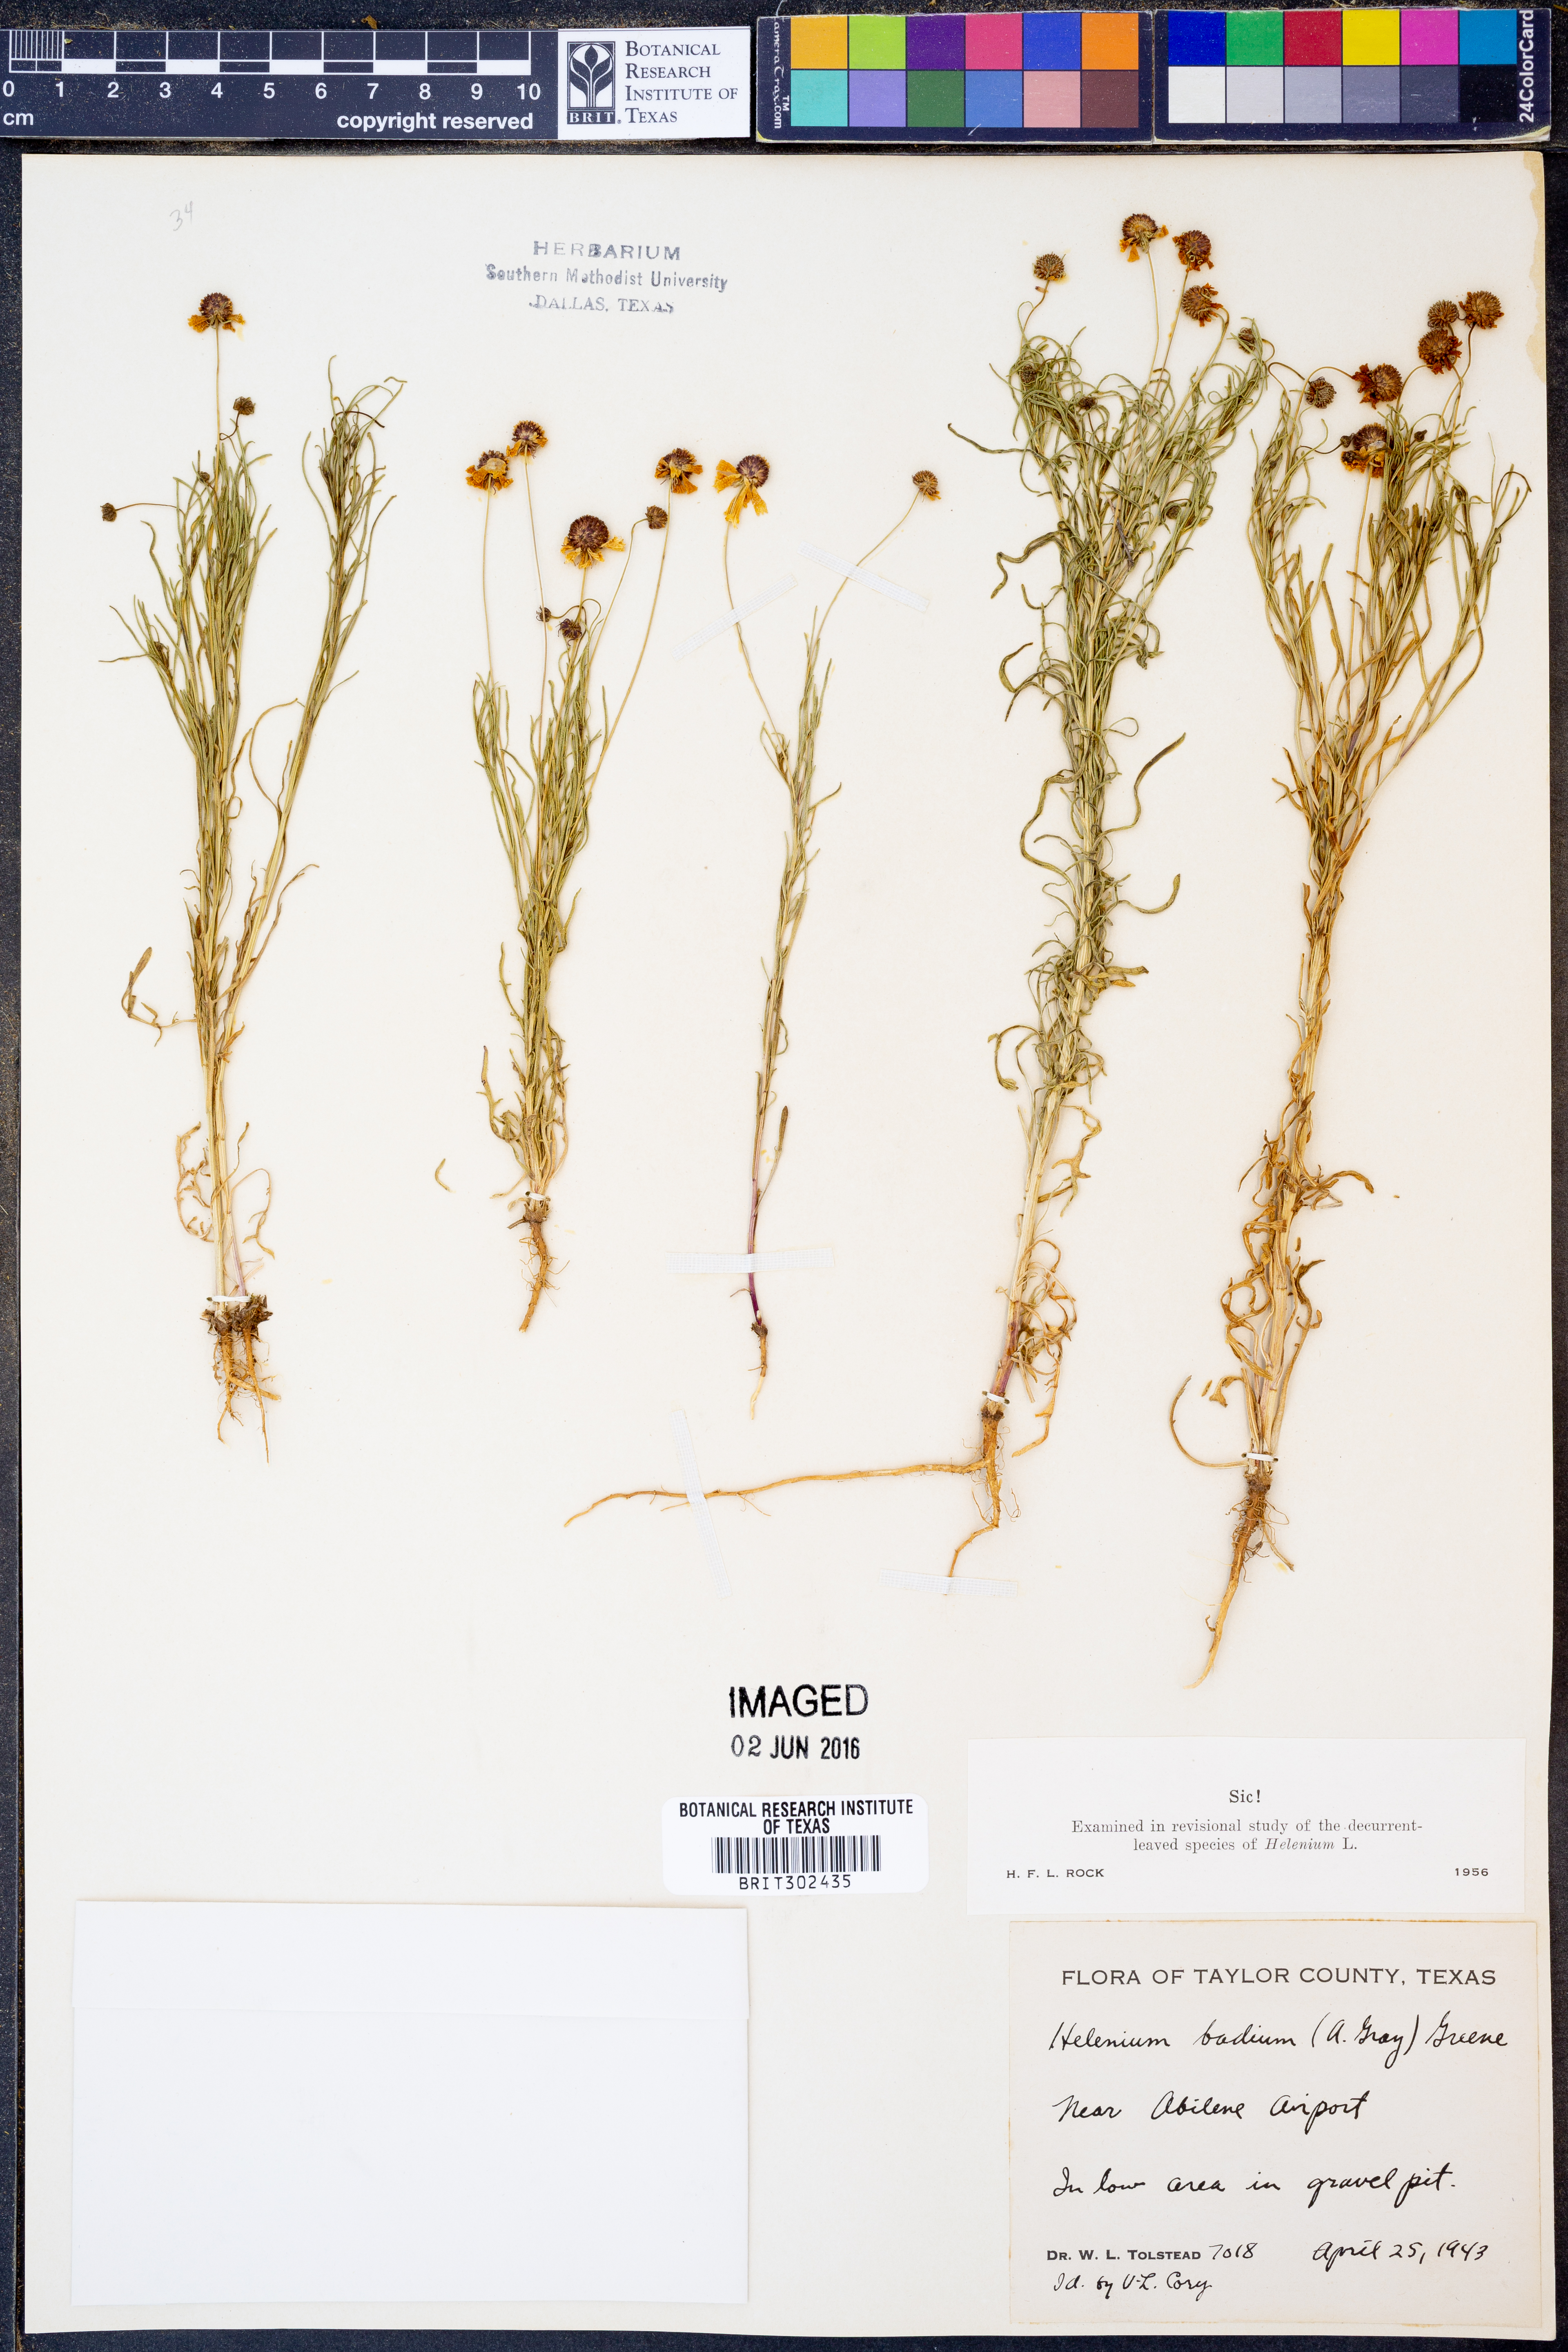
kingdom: Plantae
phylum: Tracheophyta
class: Magnoliopsida
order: Asterales
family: Asteraceae
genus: Helenium
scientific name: Helenium amarum
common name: Bitter sneezeweed
